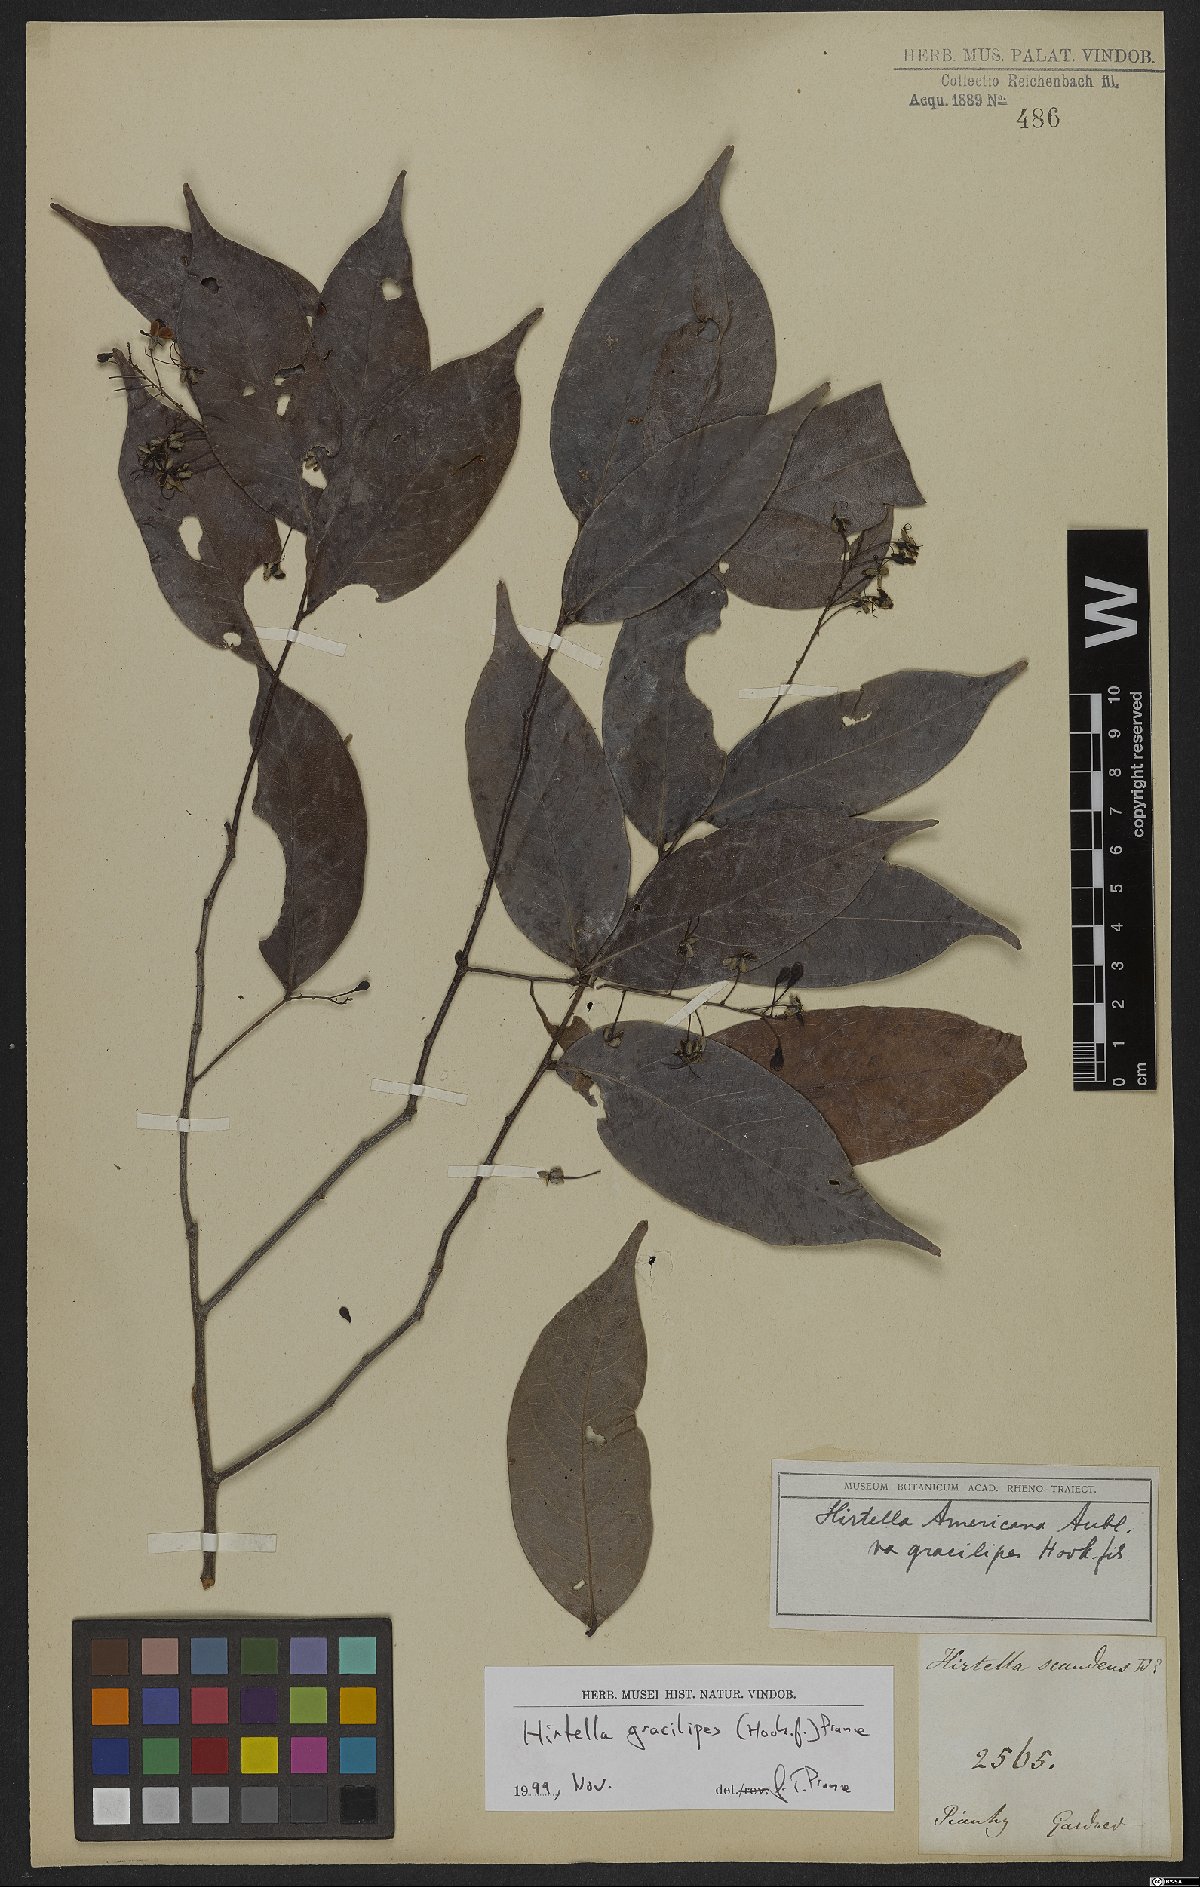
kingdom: Plantae
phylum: Tracheophyta
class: Magnoliopsida
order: Malpighiales
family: Chrysobalanaceae
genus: Hirtella
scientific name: Hirtella gracilipes
